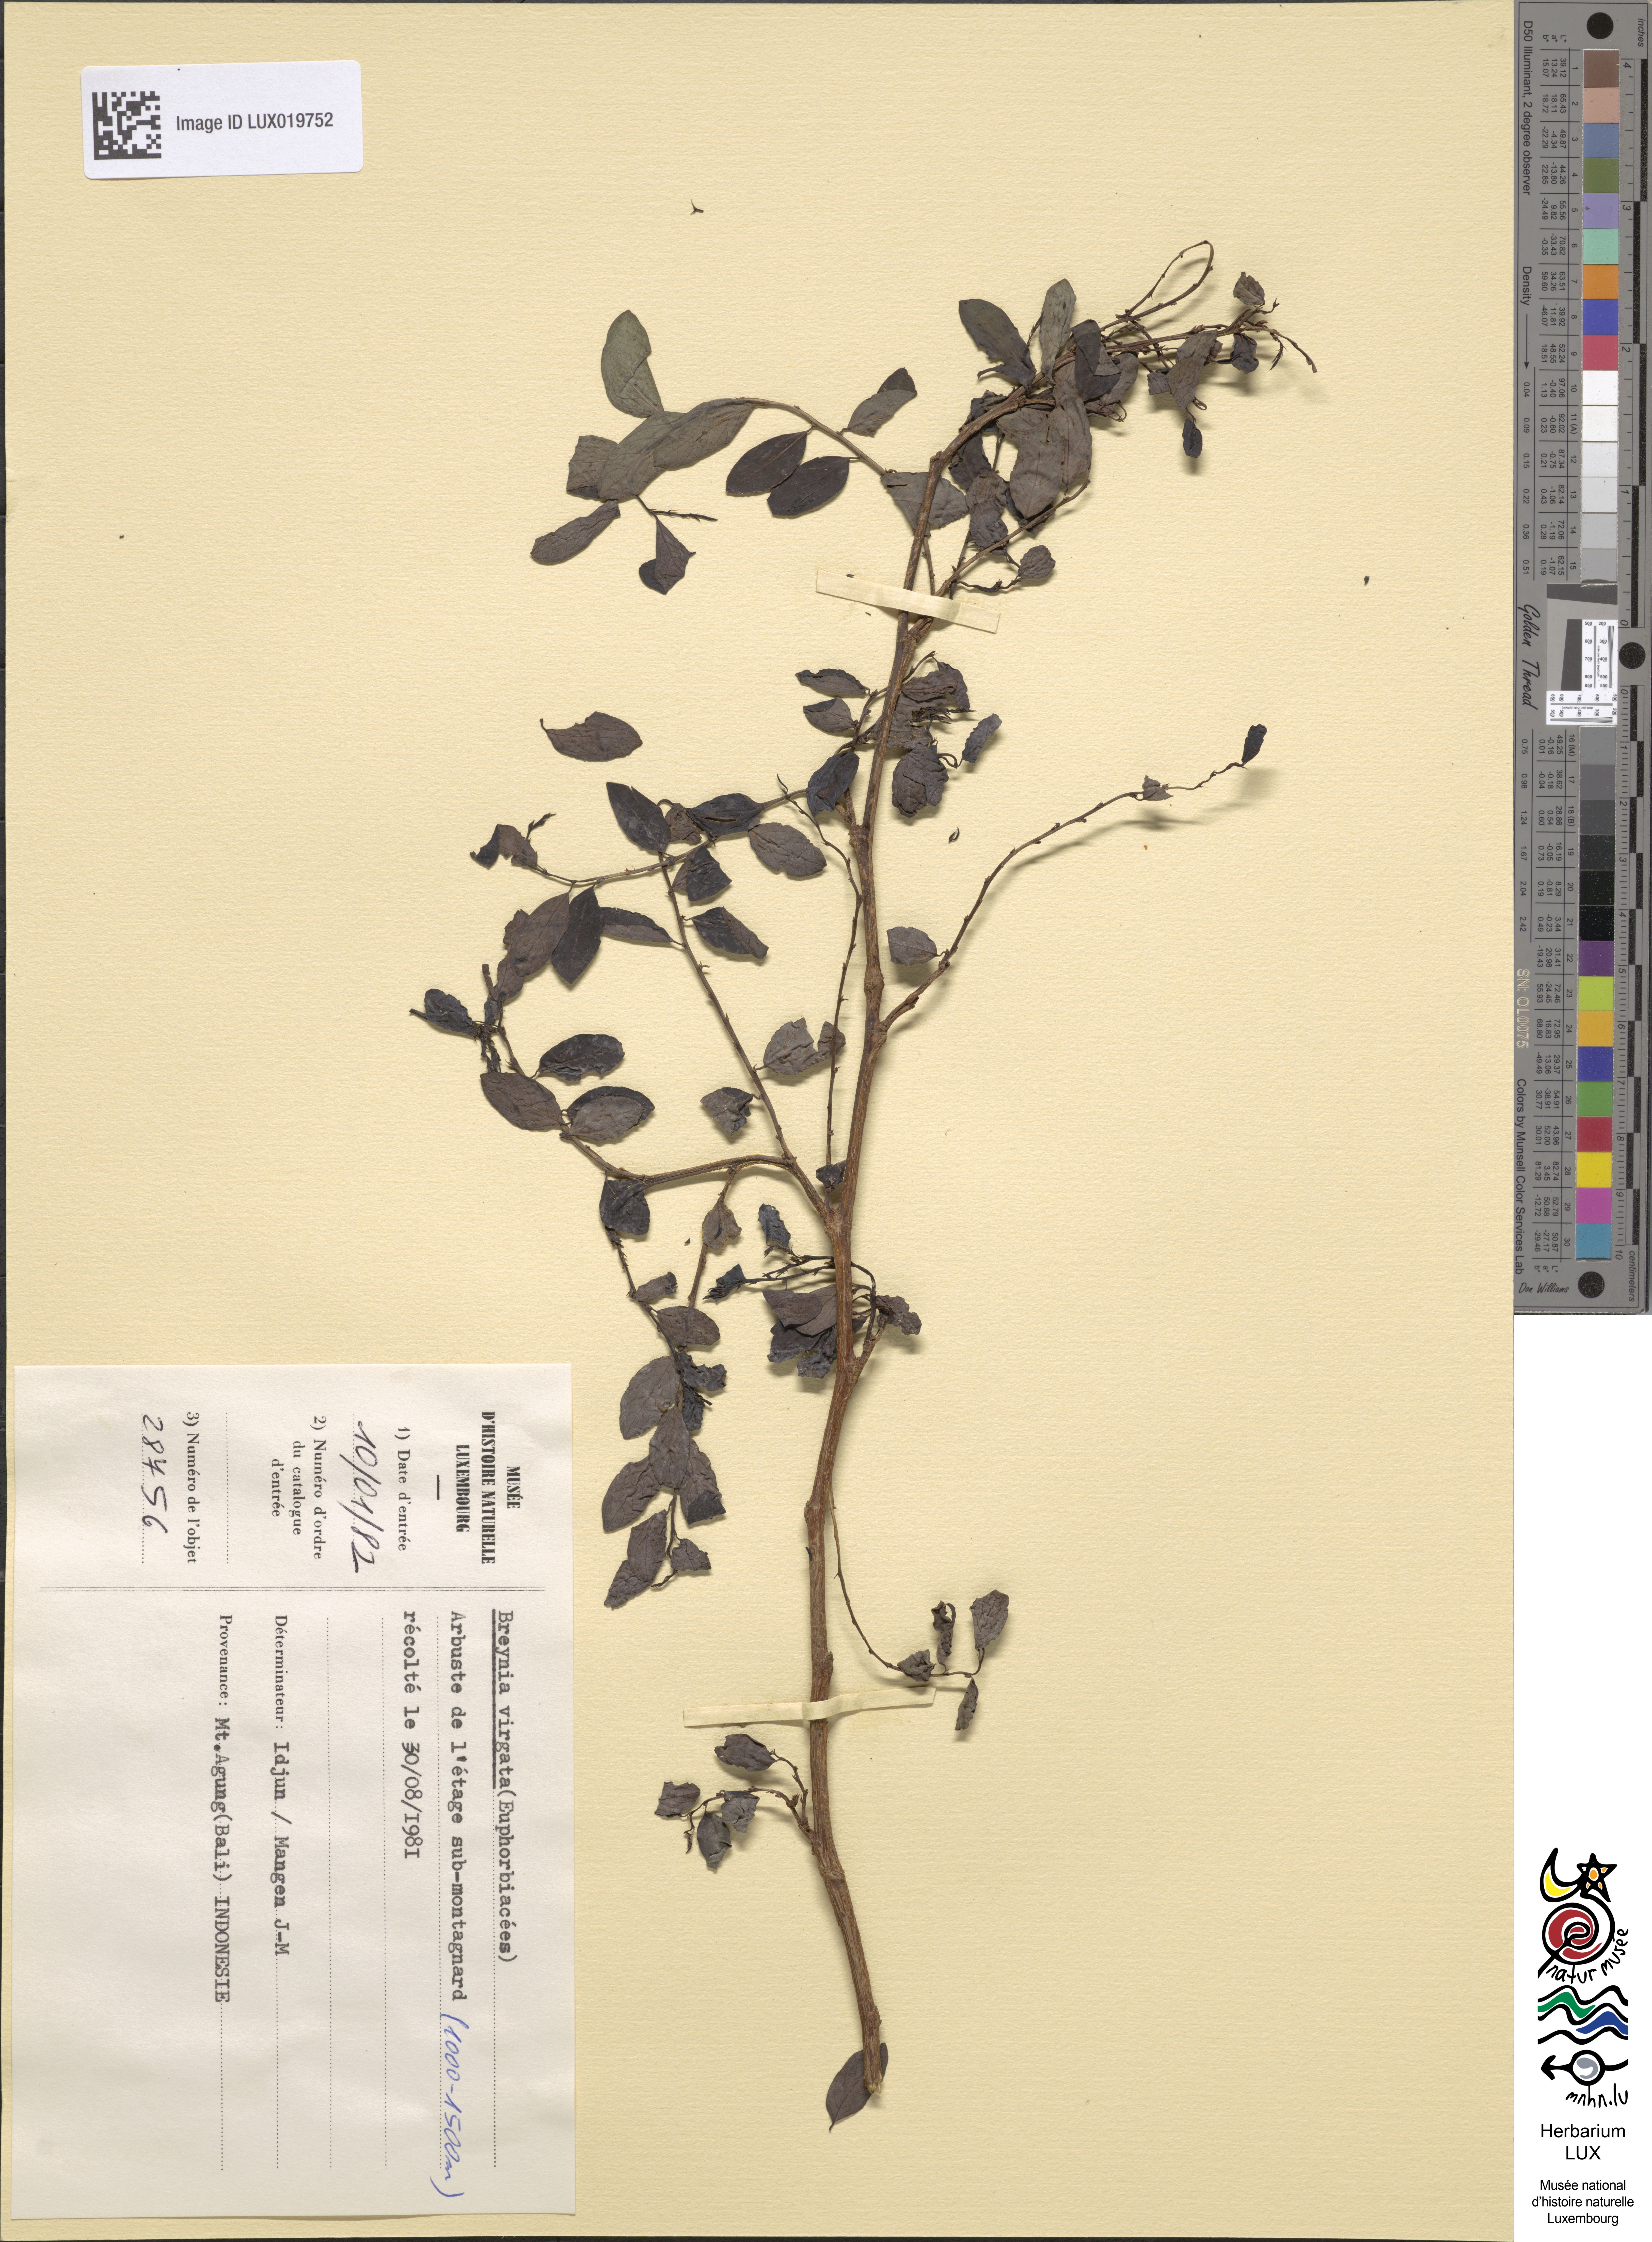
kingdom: Plantae
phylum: Tracheophyta
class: Magnoliopsida
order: Malpighiales
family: Phyllanthaceae
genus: Breynia
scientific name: Breynia virgata
